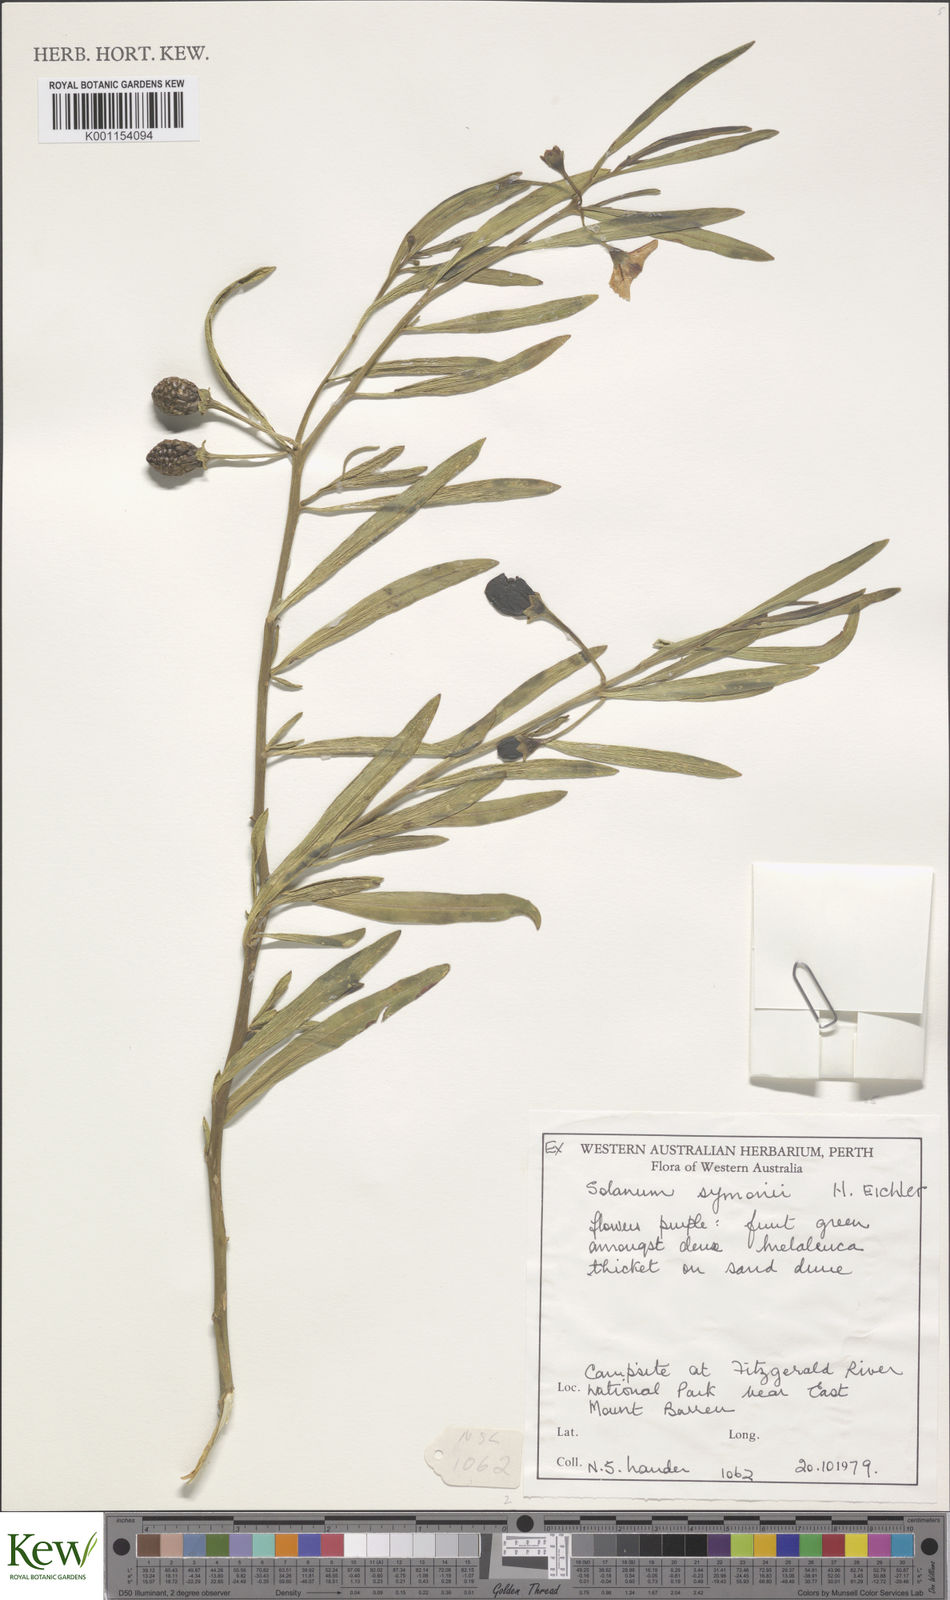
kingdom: Plantae
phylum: Tracheophyta
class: Magnoliopsida
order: Solanales
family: Solanaceae
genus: Solanum
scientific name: Solanum symonii
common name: South australian kangaroo-apple
